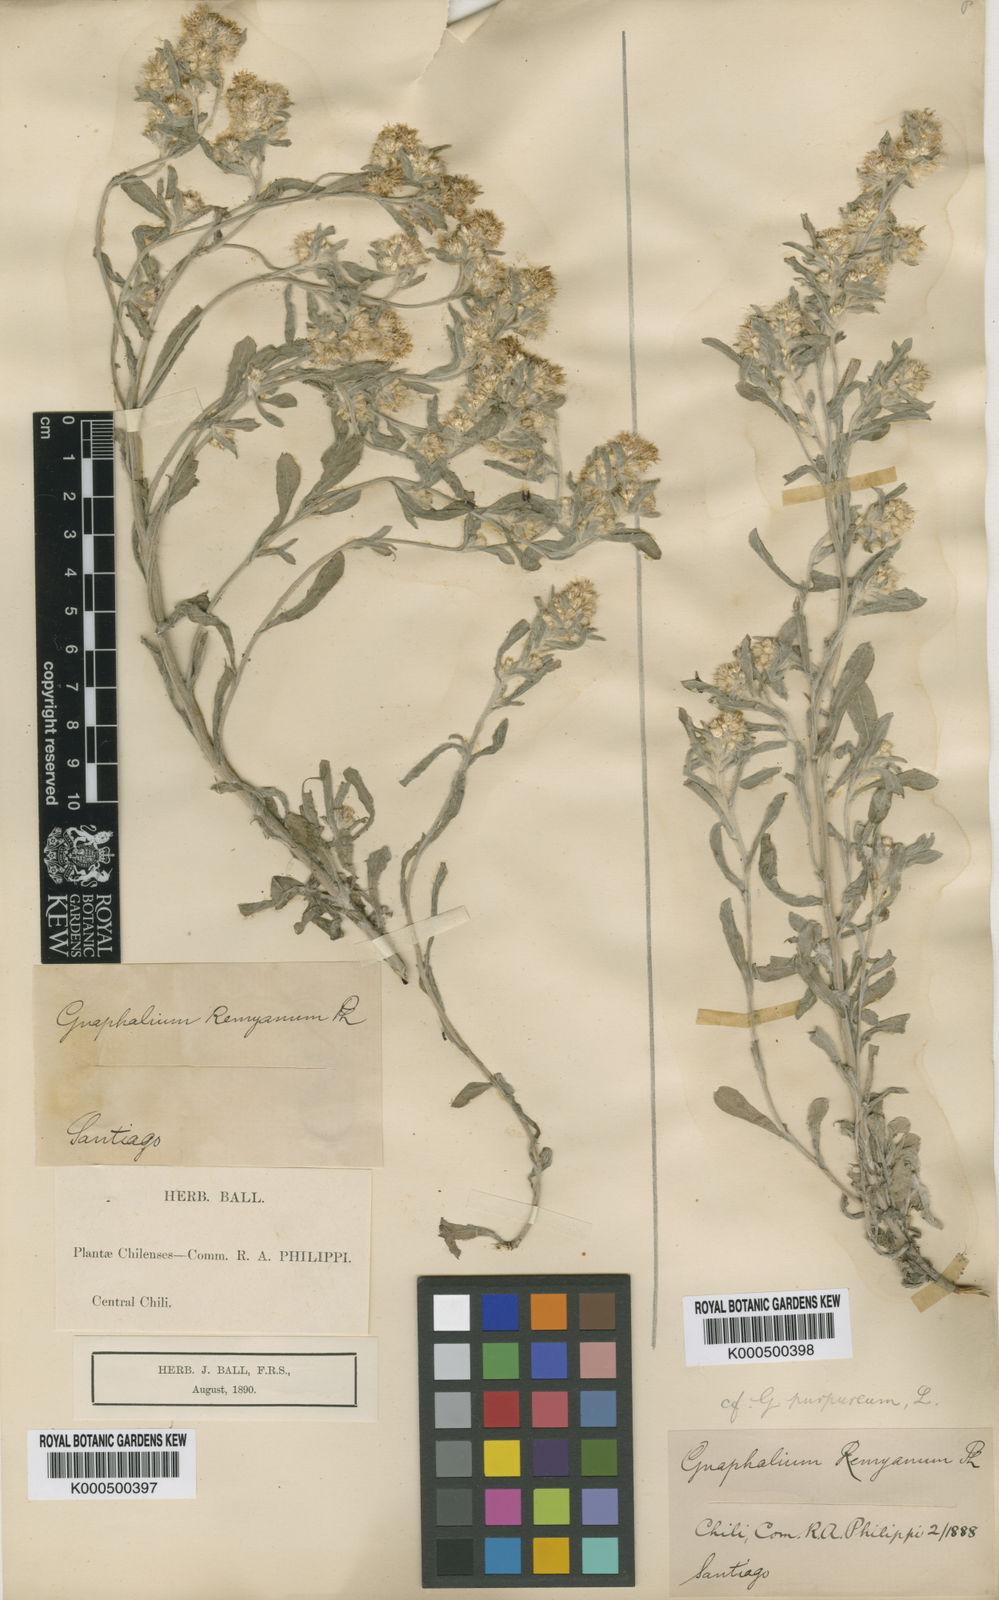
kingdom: Plantae
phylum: Tracheophyta
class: Magnoliopsida
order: Asterales
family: Asteraceae
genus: Gamochaeta
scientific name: Gamochaeta purpurea
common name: Purple cudweed
